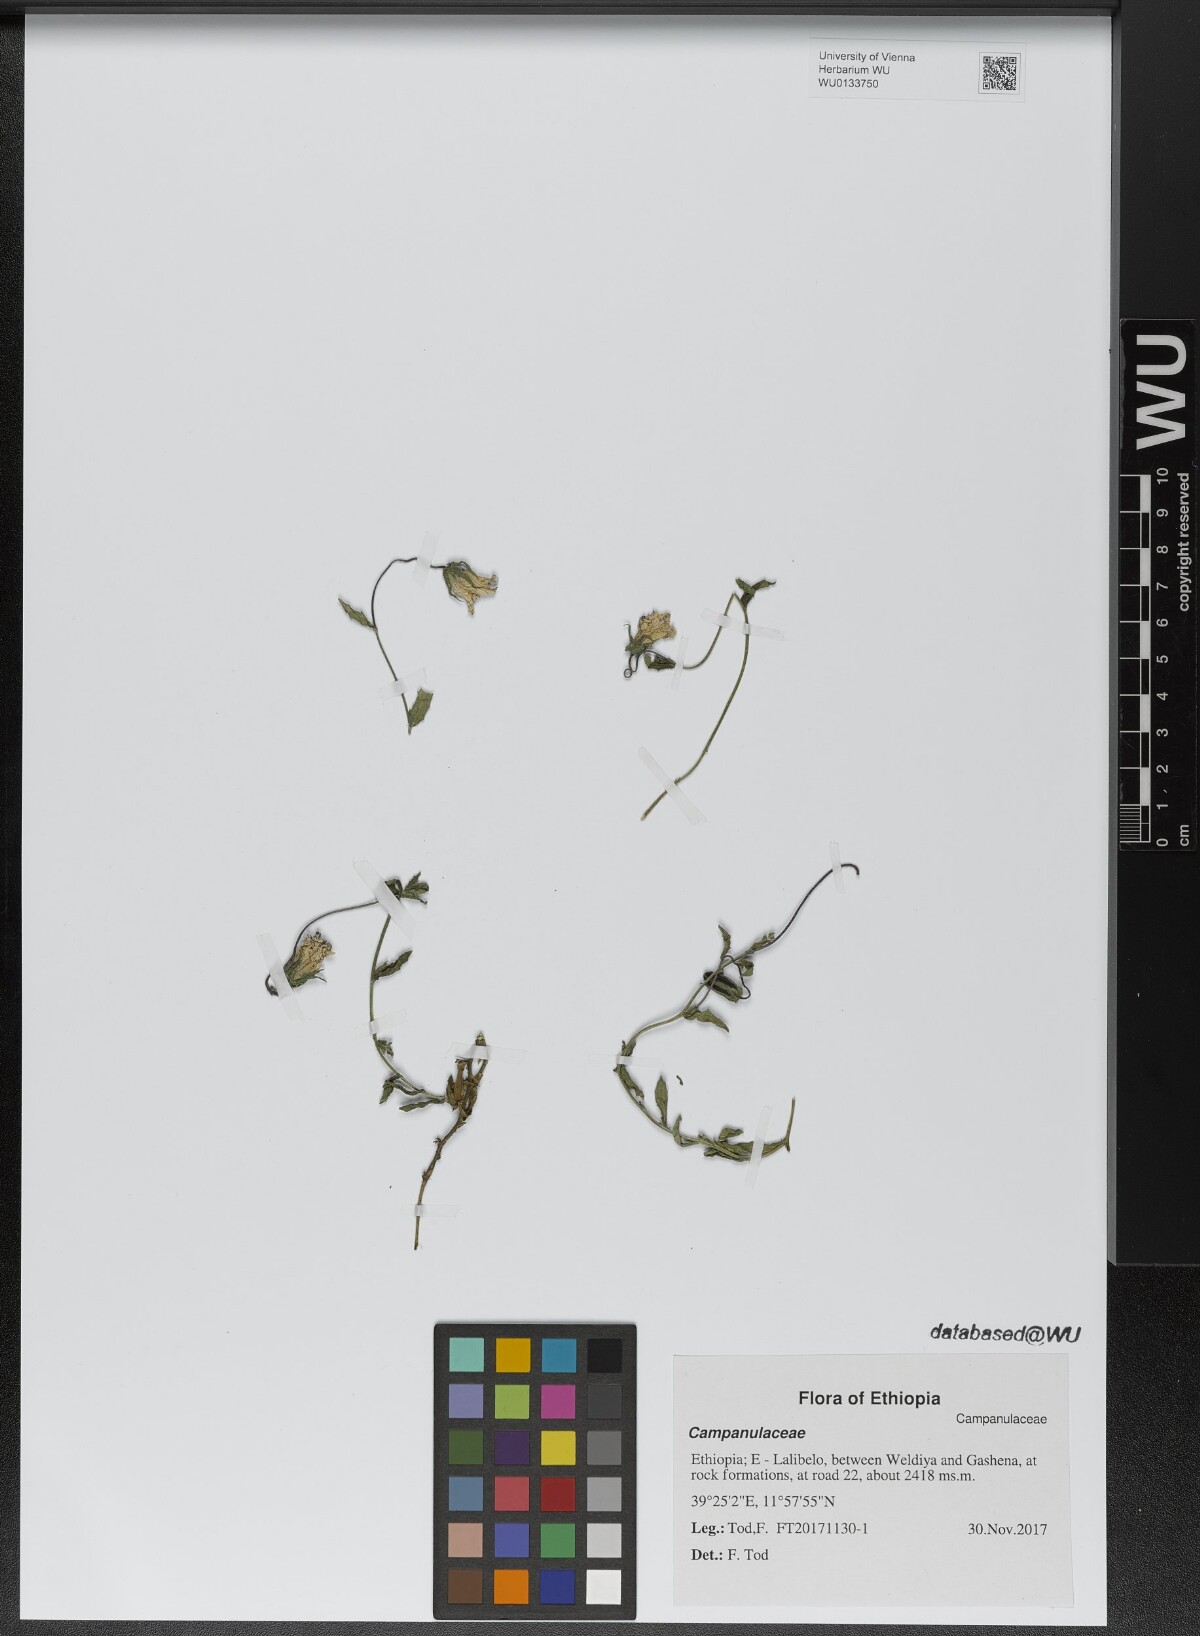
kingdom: Plantae
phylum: Tracheophyta
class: Magnoliopsida
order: Asterales
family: Campanulaceae
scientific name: Campanulaceae
